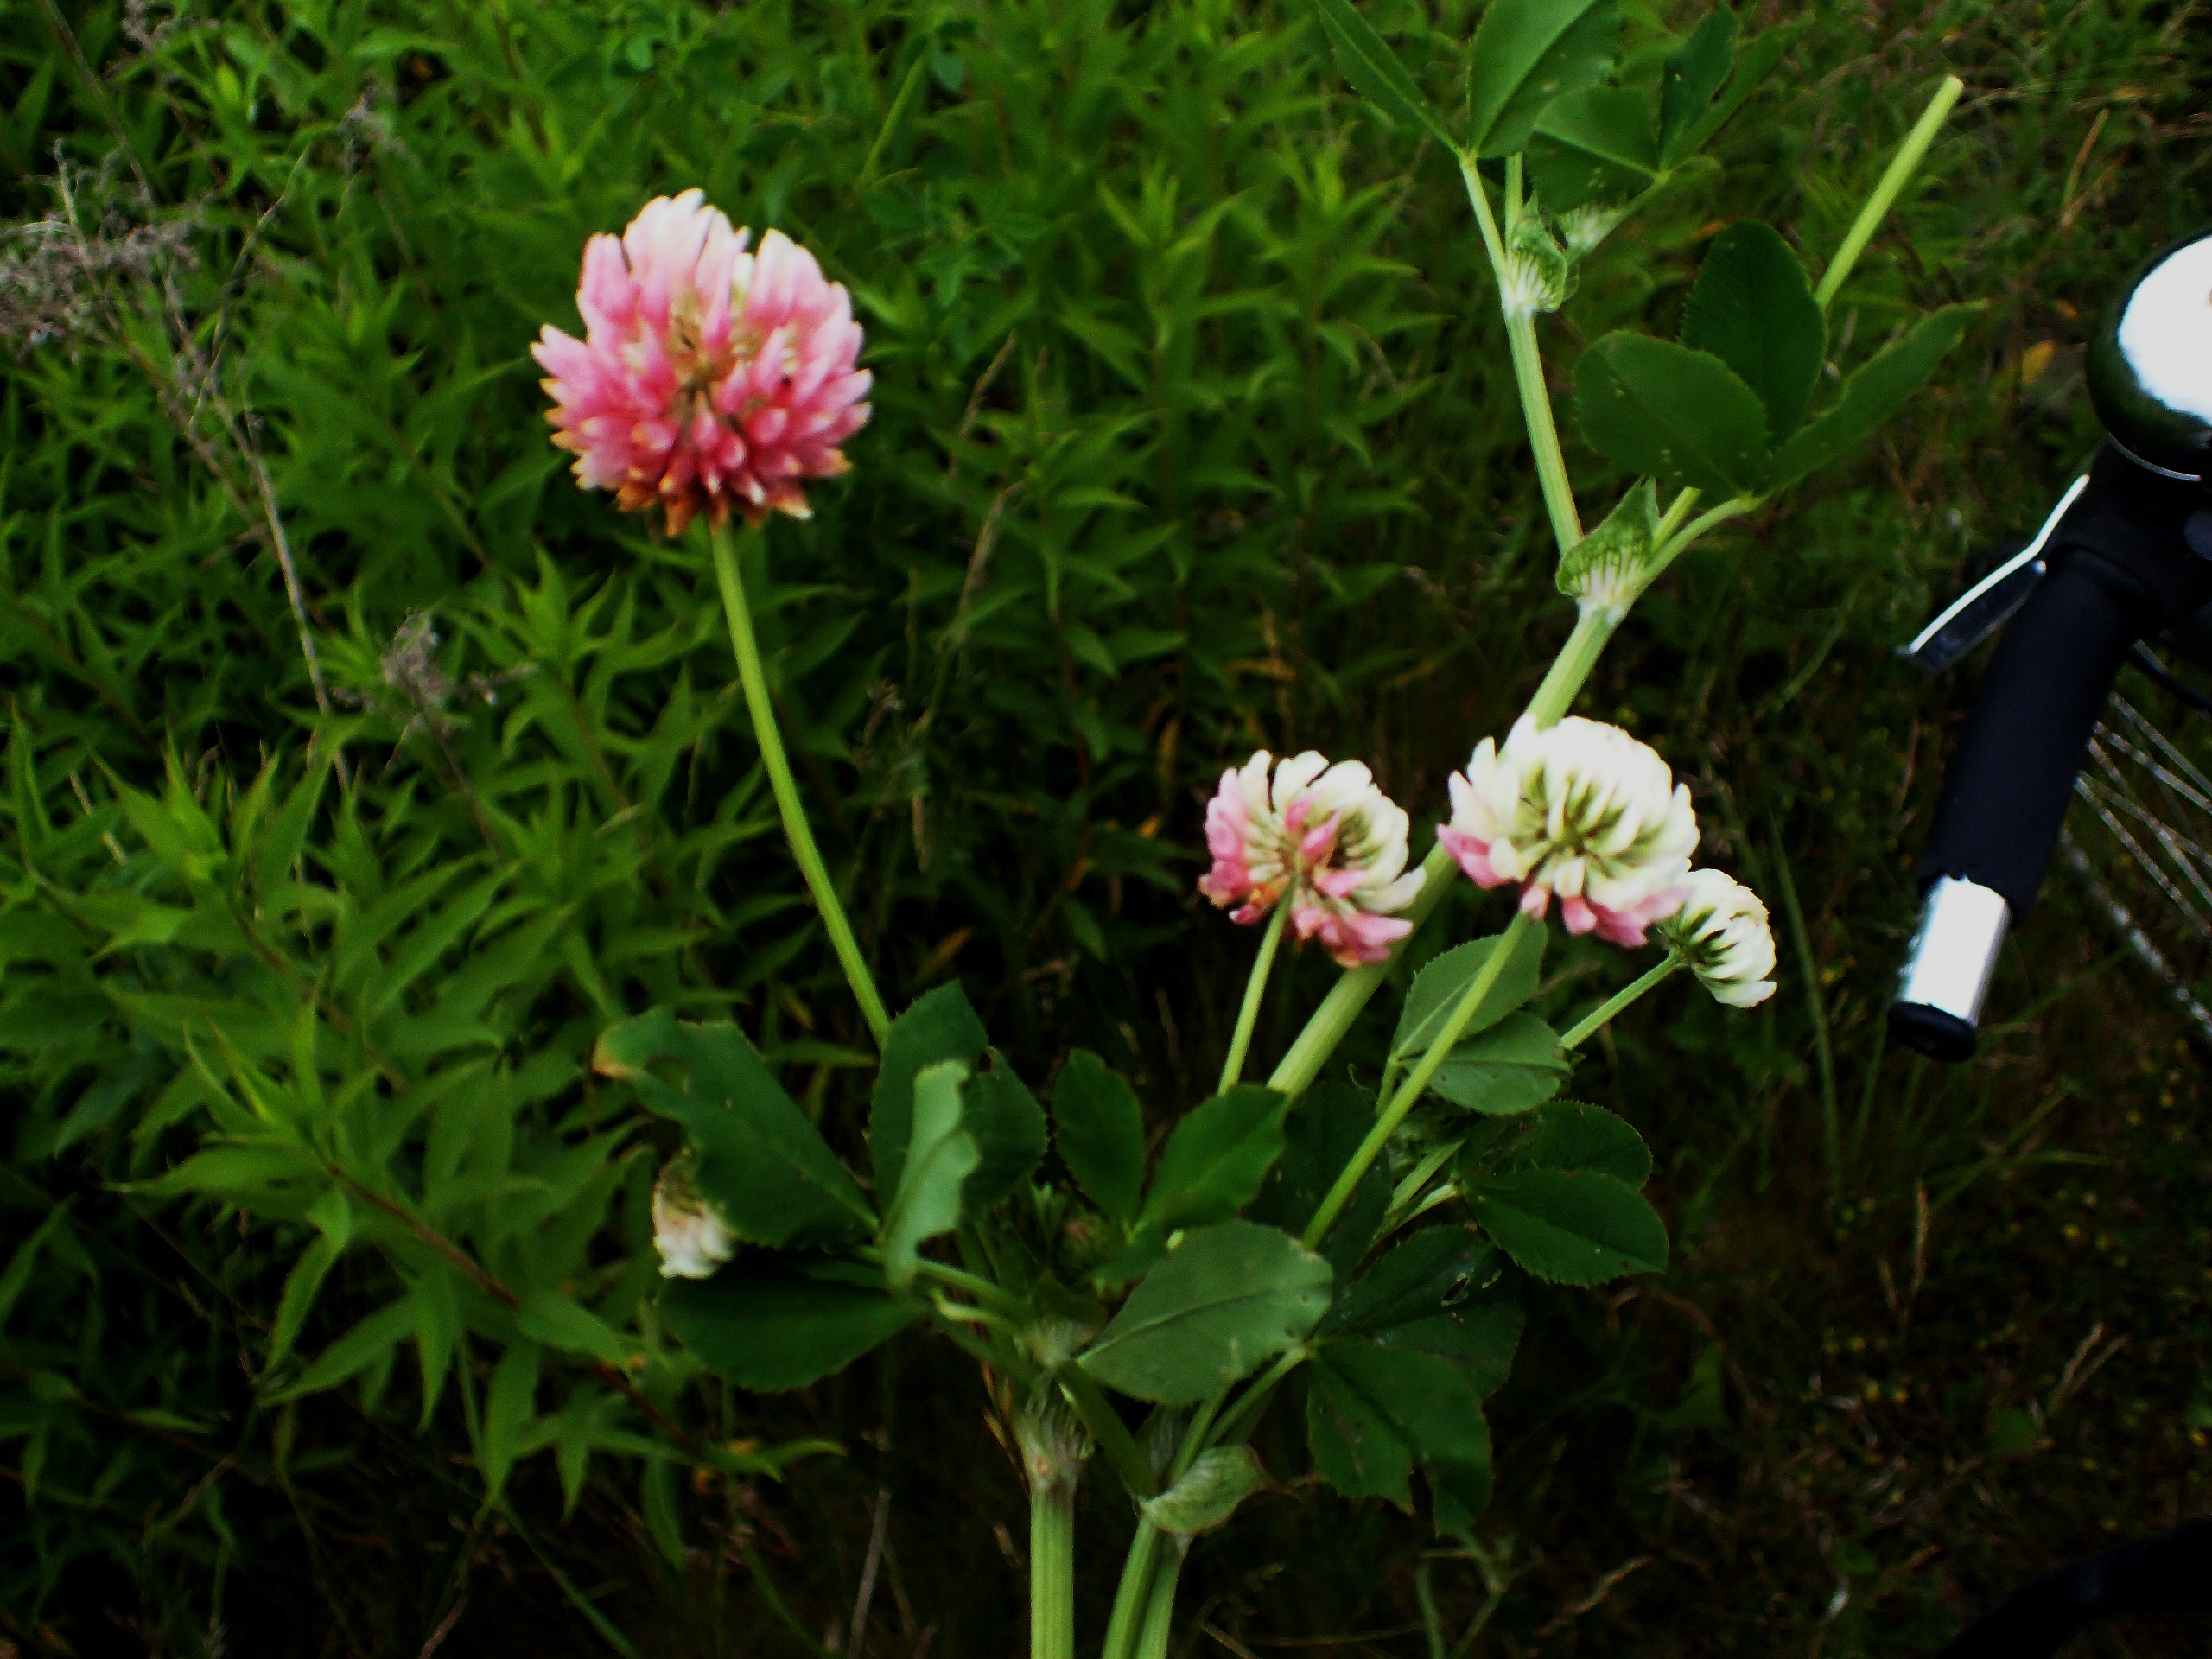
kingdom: Plantae
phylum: Tracheophyta
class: Magnoliopsida
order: Fabales
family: Fabaceae
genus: Trifolium
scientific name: Trifolium hybridum
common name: Alsike-kløver
